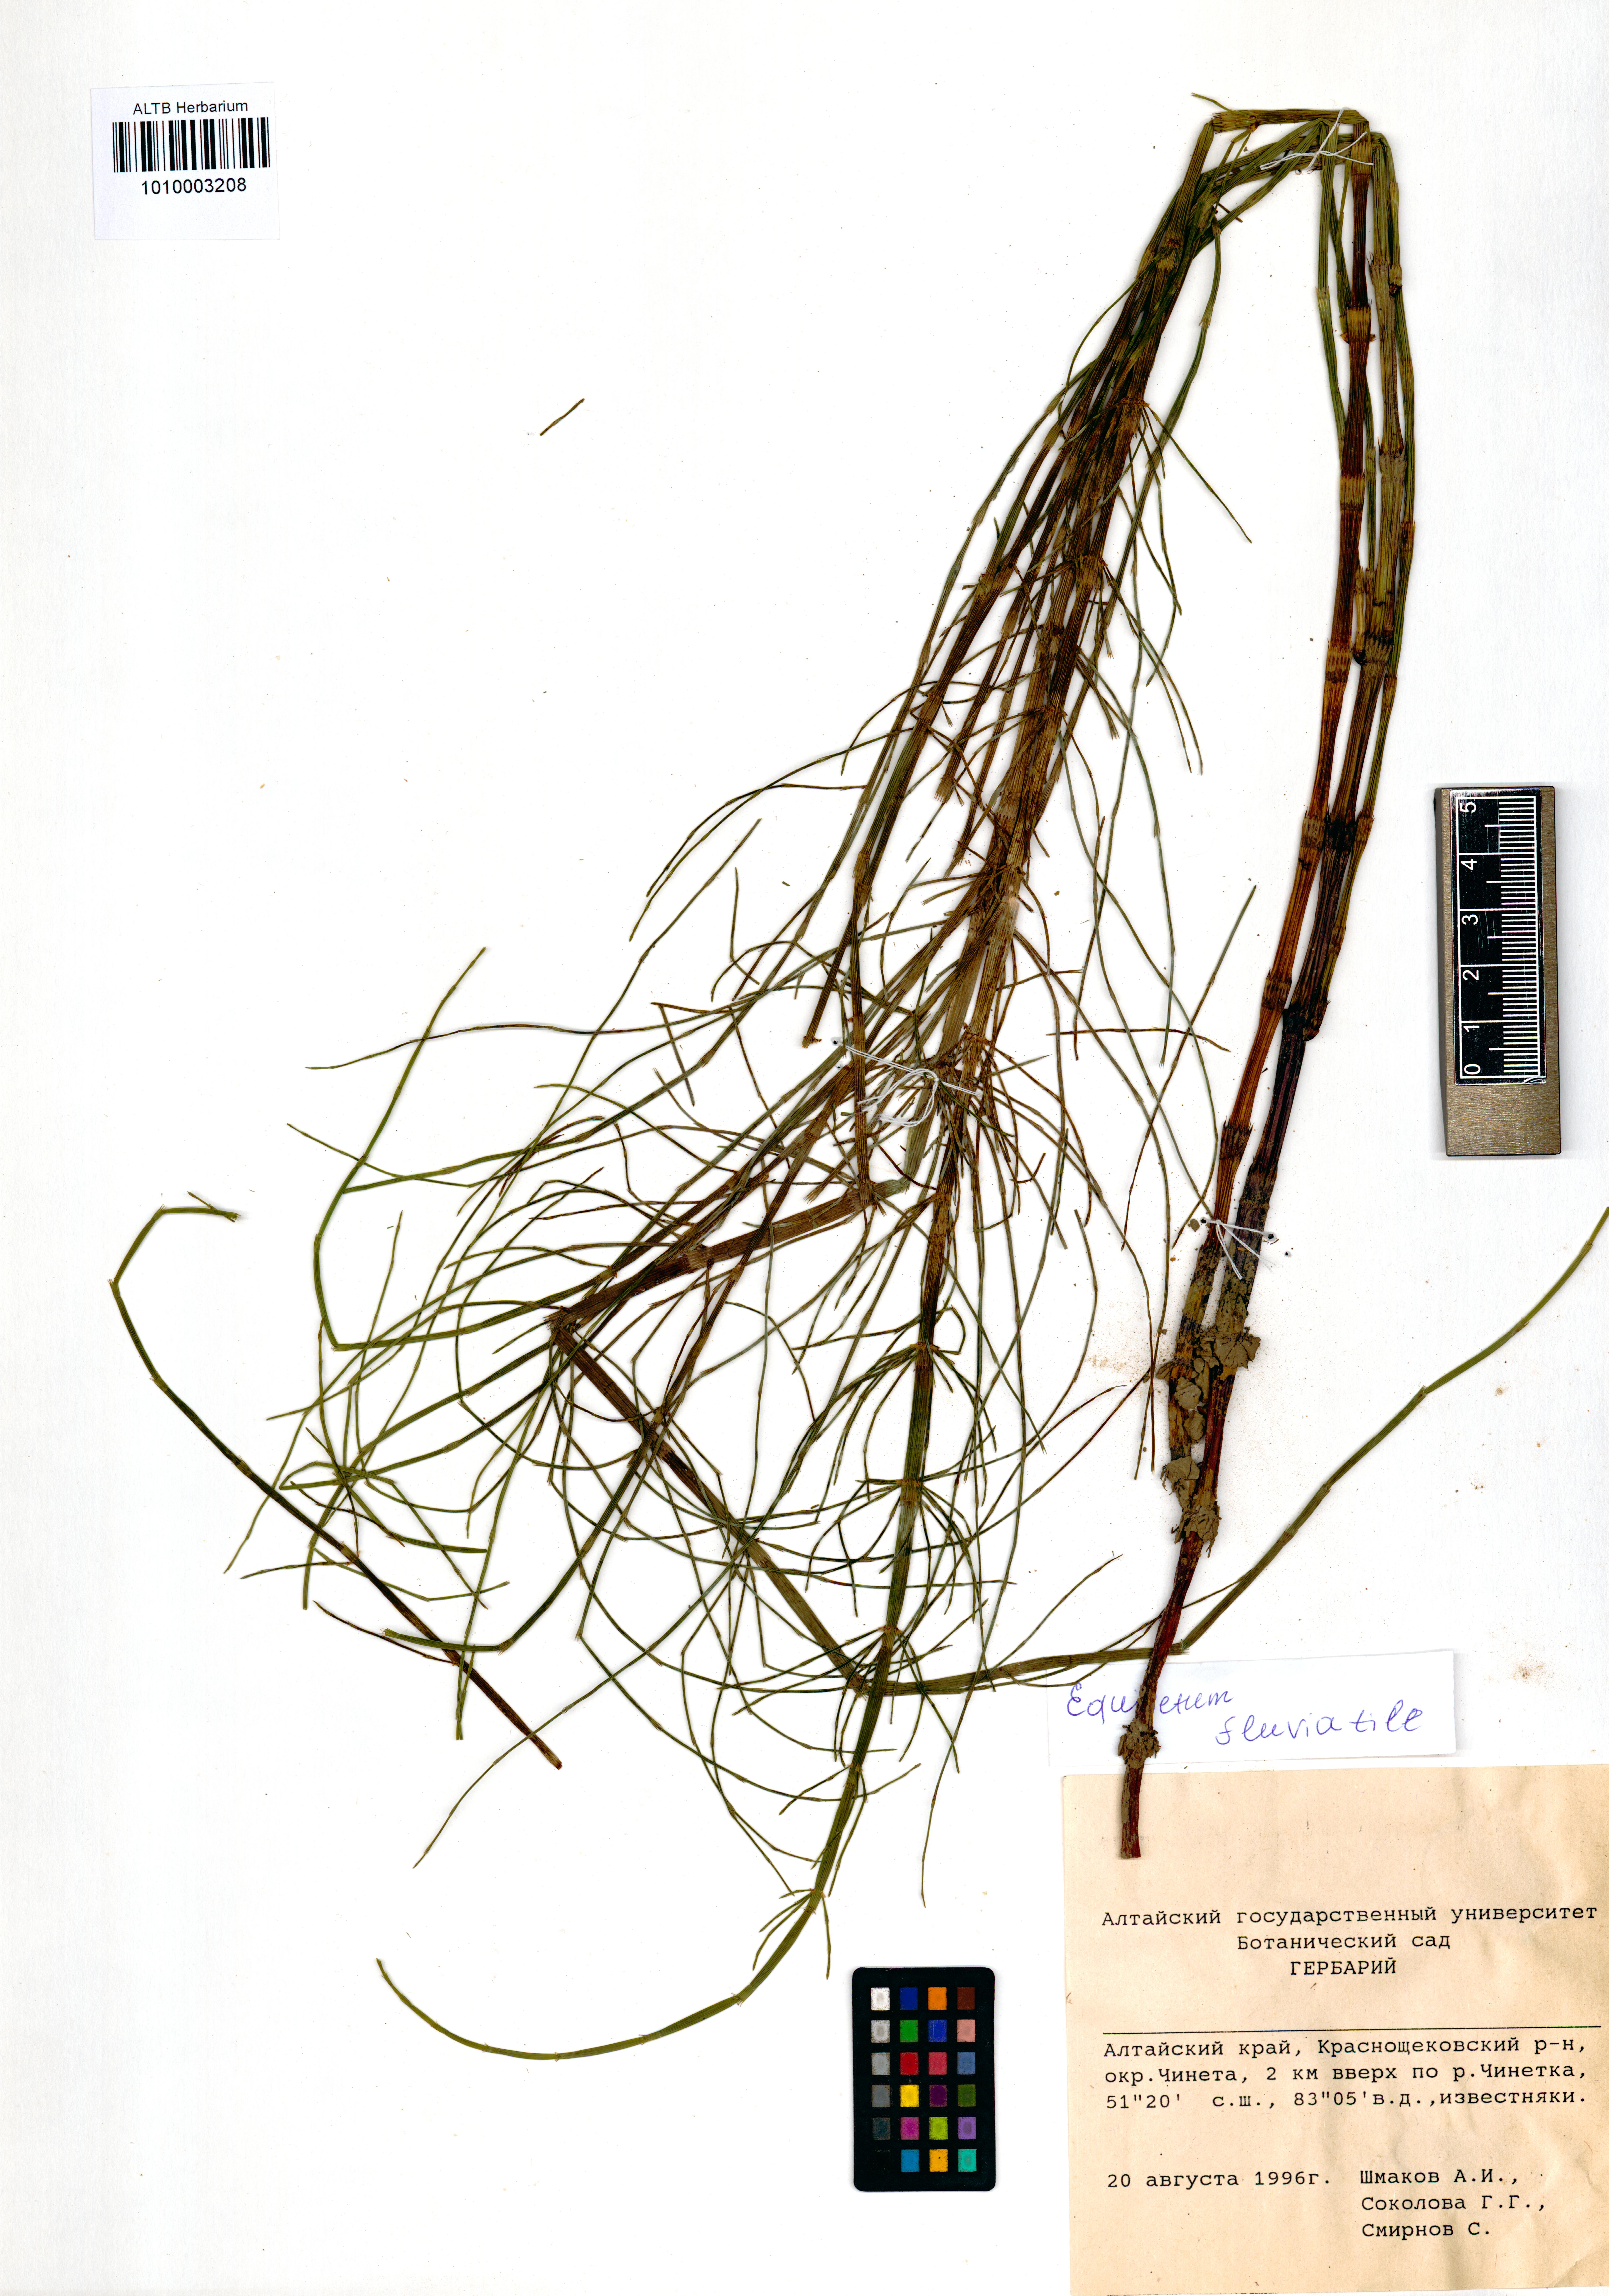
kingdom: Plantae
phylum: Tracheophyta
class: Polypodiopsida
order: Equisetales
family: Equisetaceae
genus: Equisetum
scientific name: Equisetum fluviatile
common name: Water horsetail
